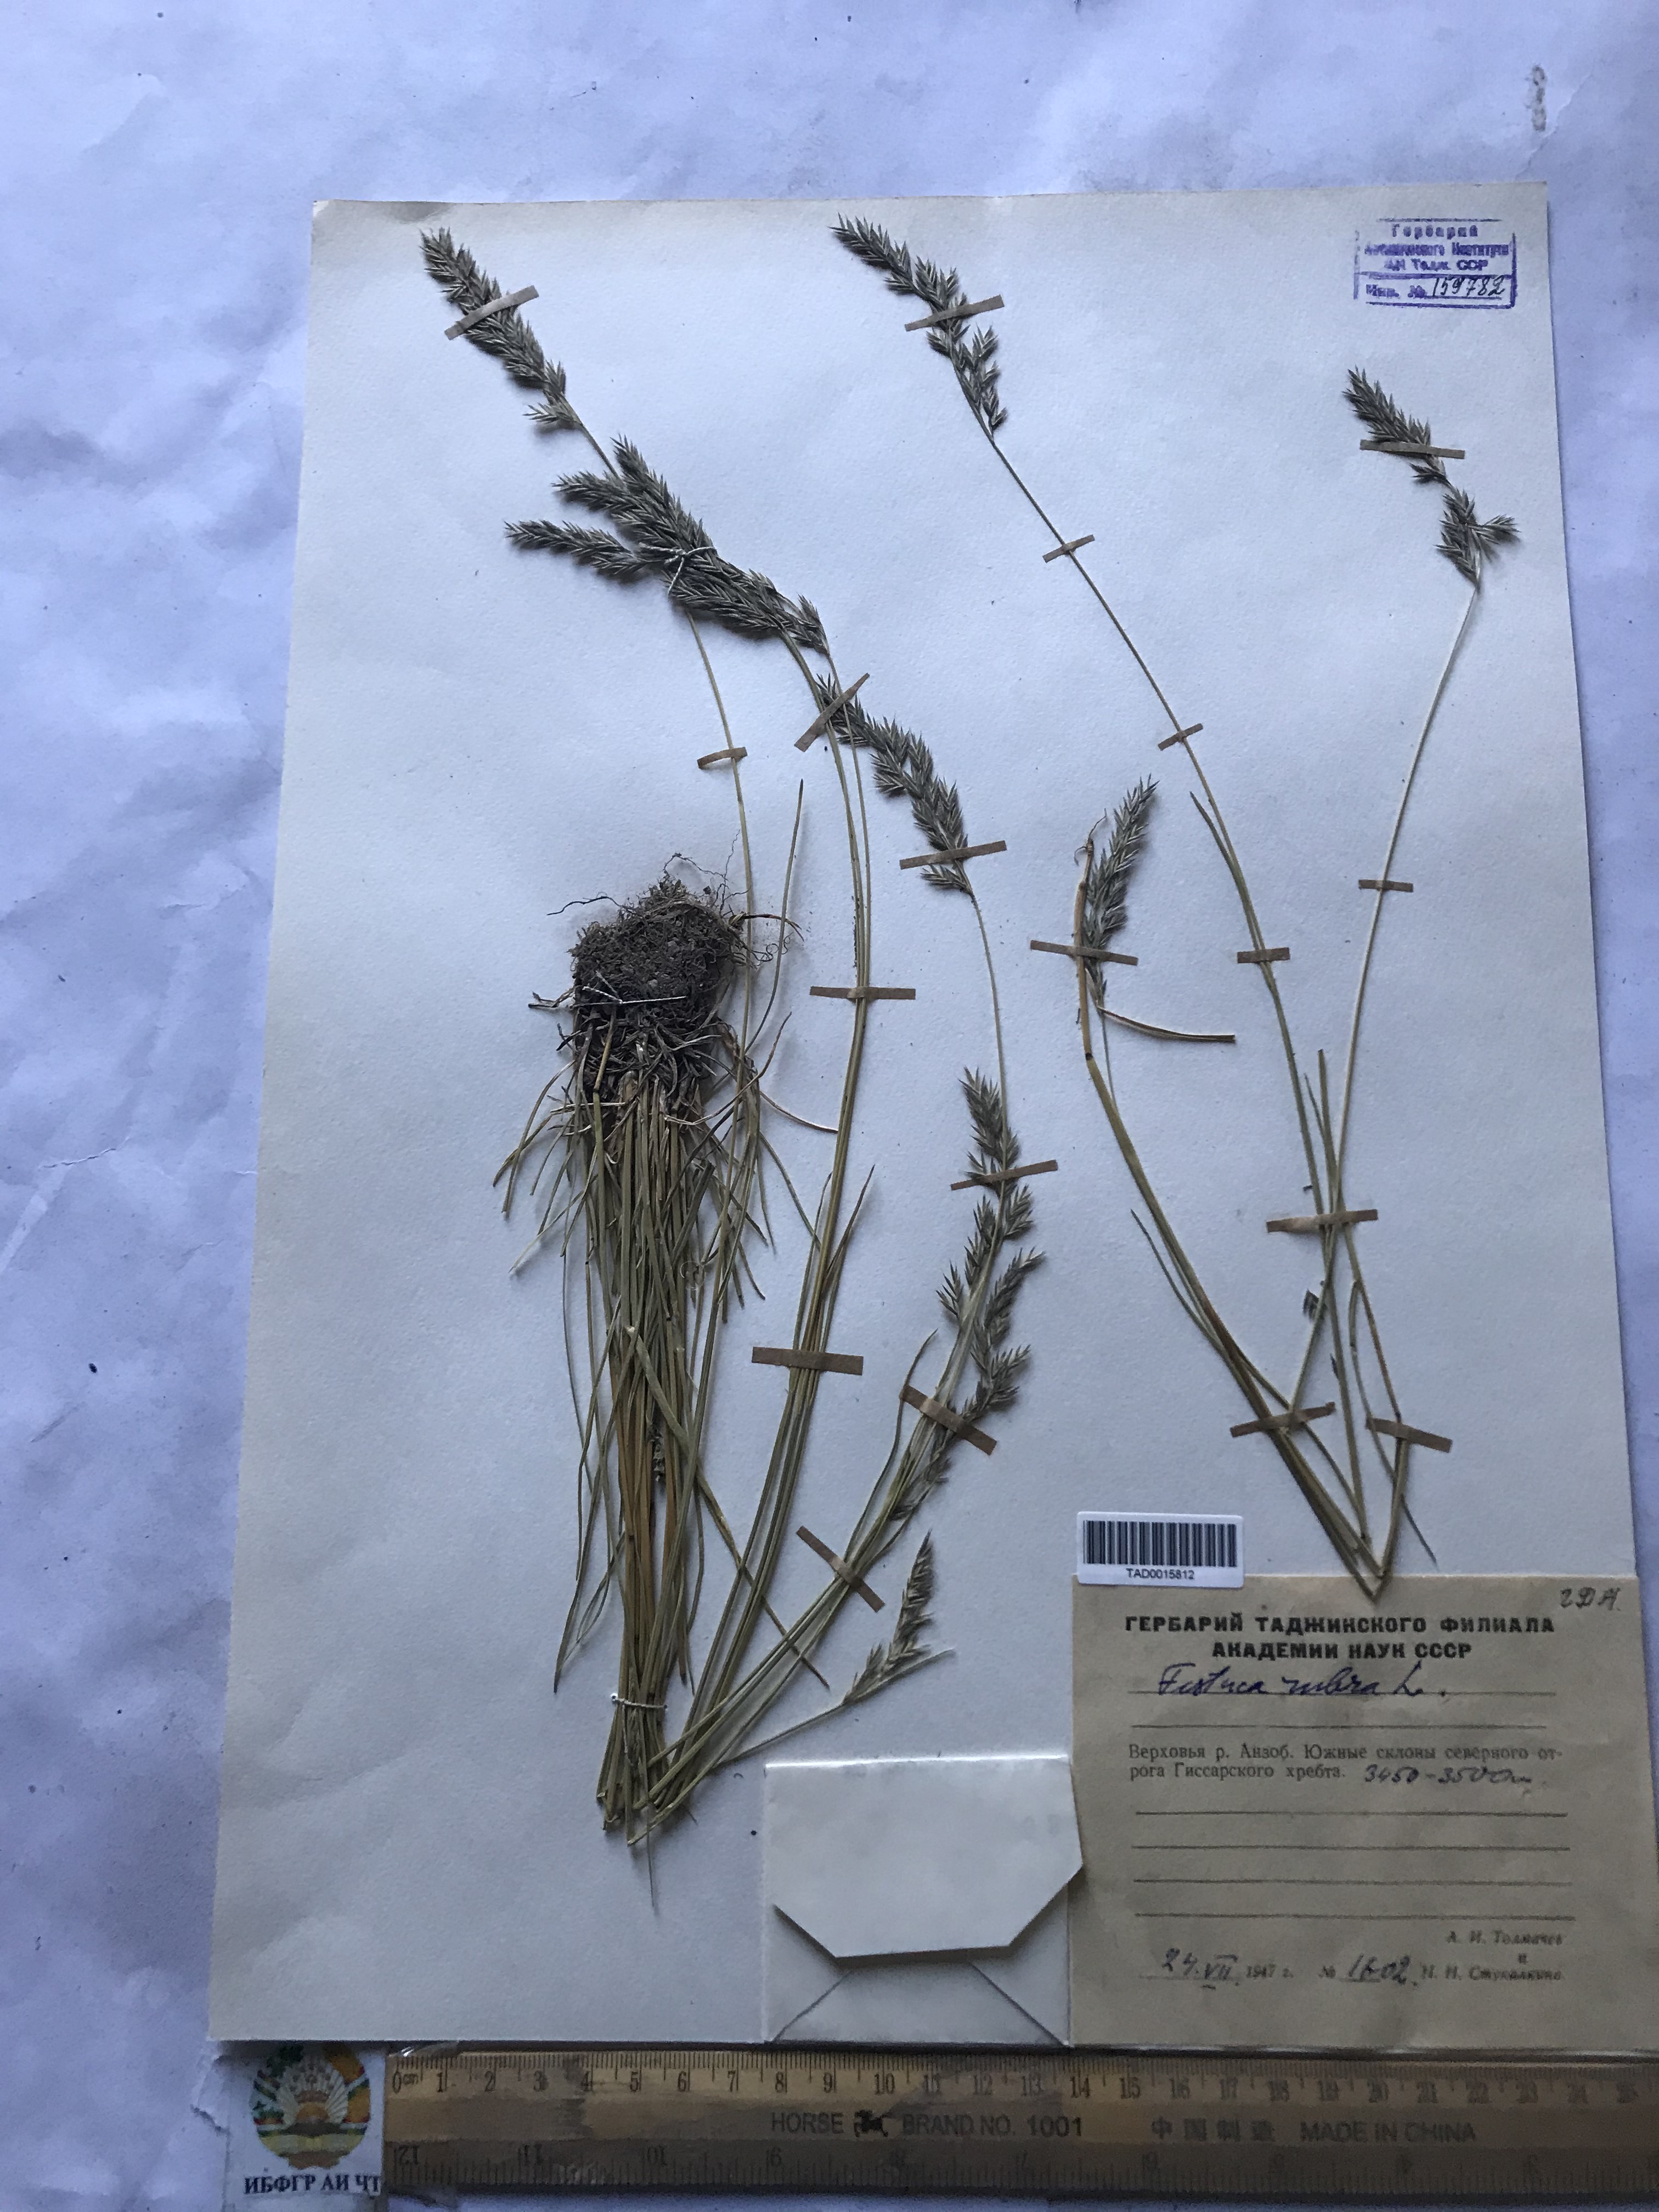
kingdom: Plantae
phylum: Tracheophyta
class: Liliopsida
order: Poales
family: Poaceae
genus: Festuca
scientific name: Festuca rubra
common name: Red fescue
